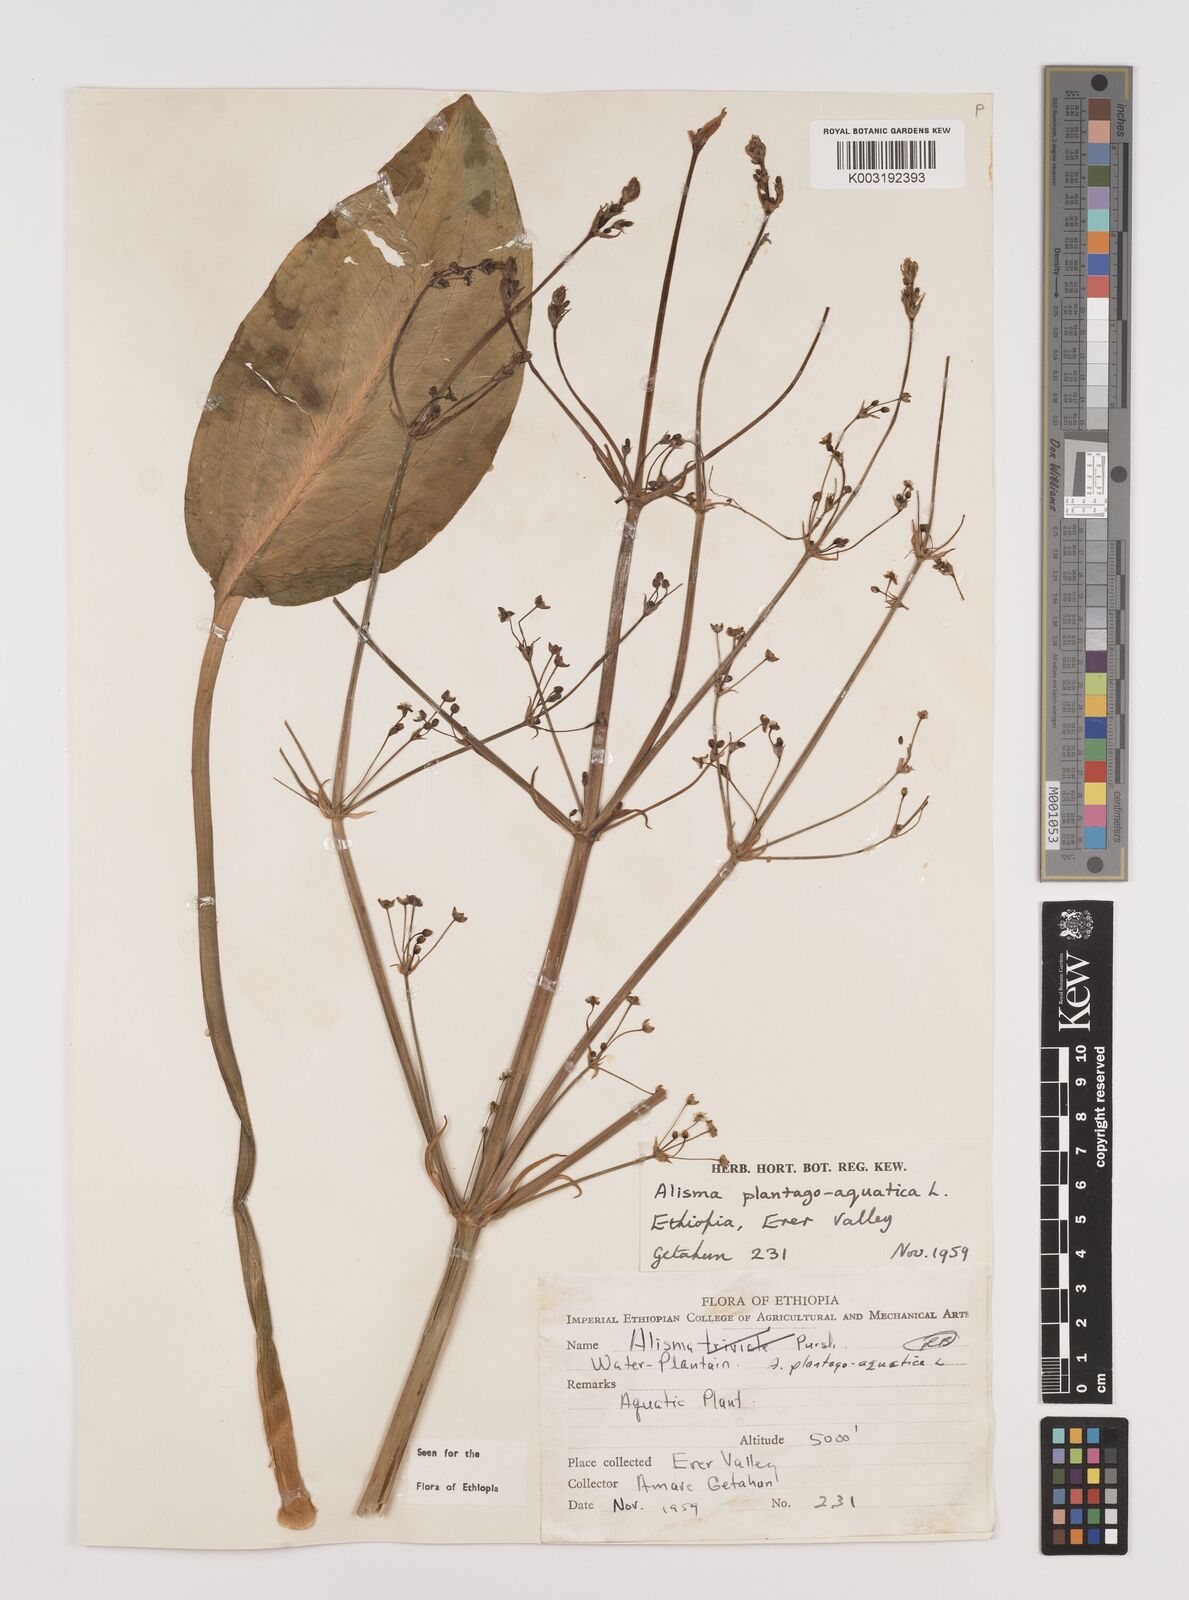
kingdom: Plantae
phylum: Tracheophyta
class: Liliopsida
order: Alismatales
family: Alismataceae
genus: Alisma
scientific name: Alisma plantago-aquatica
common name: Water-plantain
